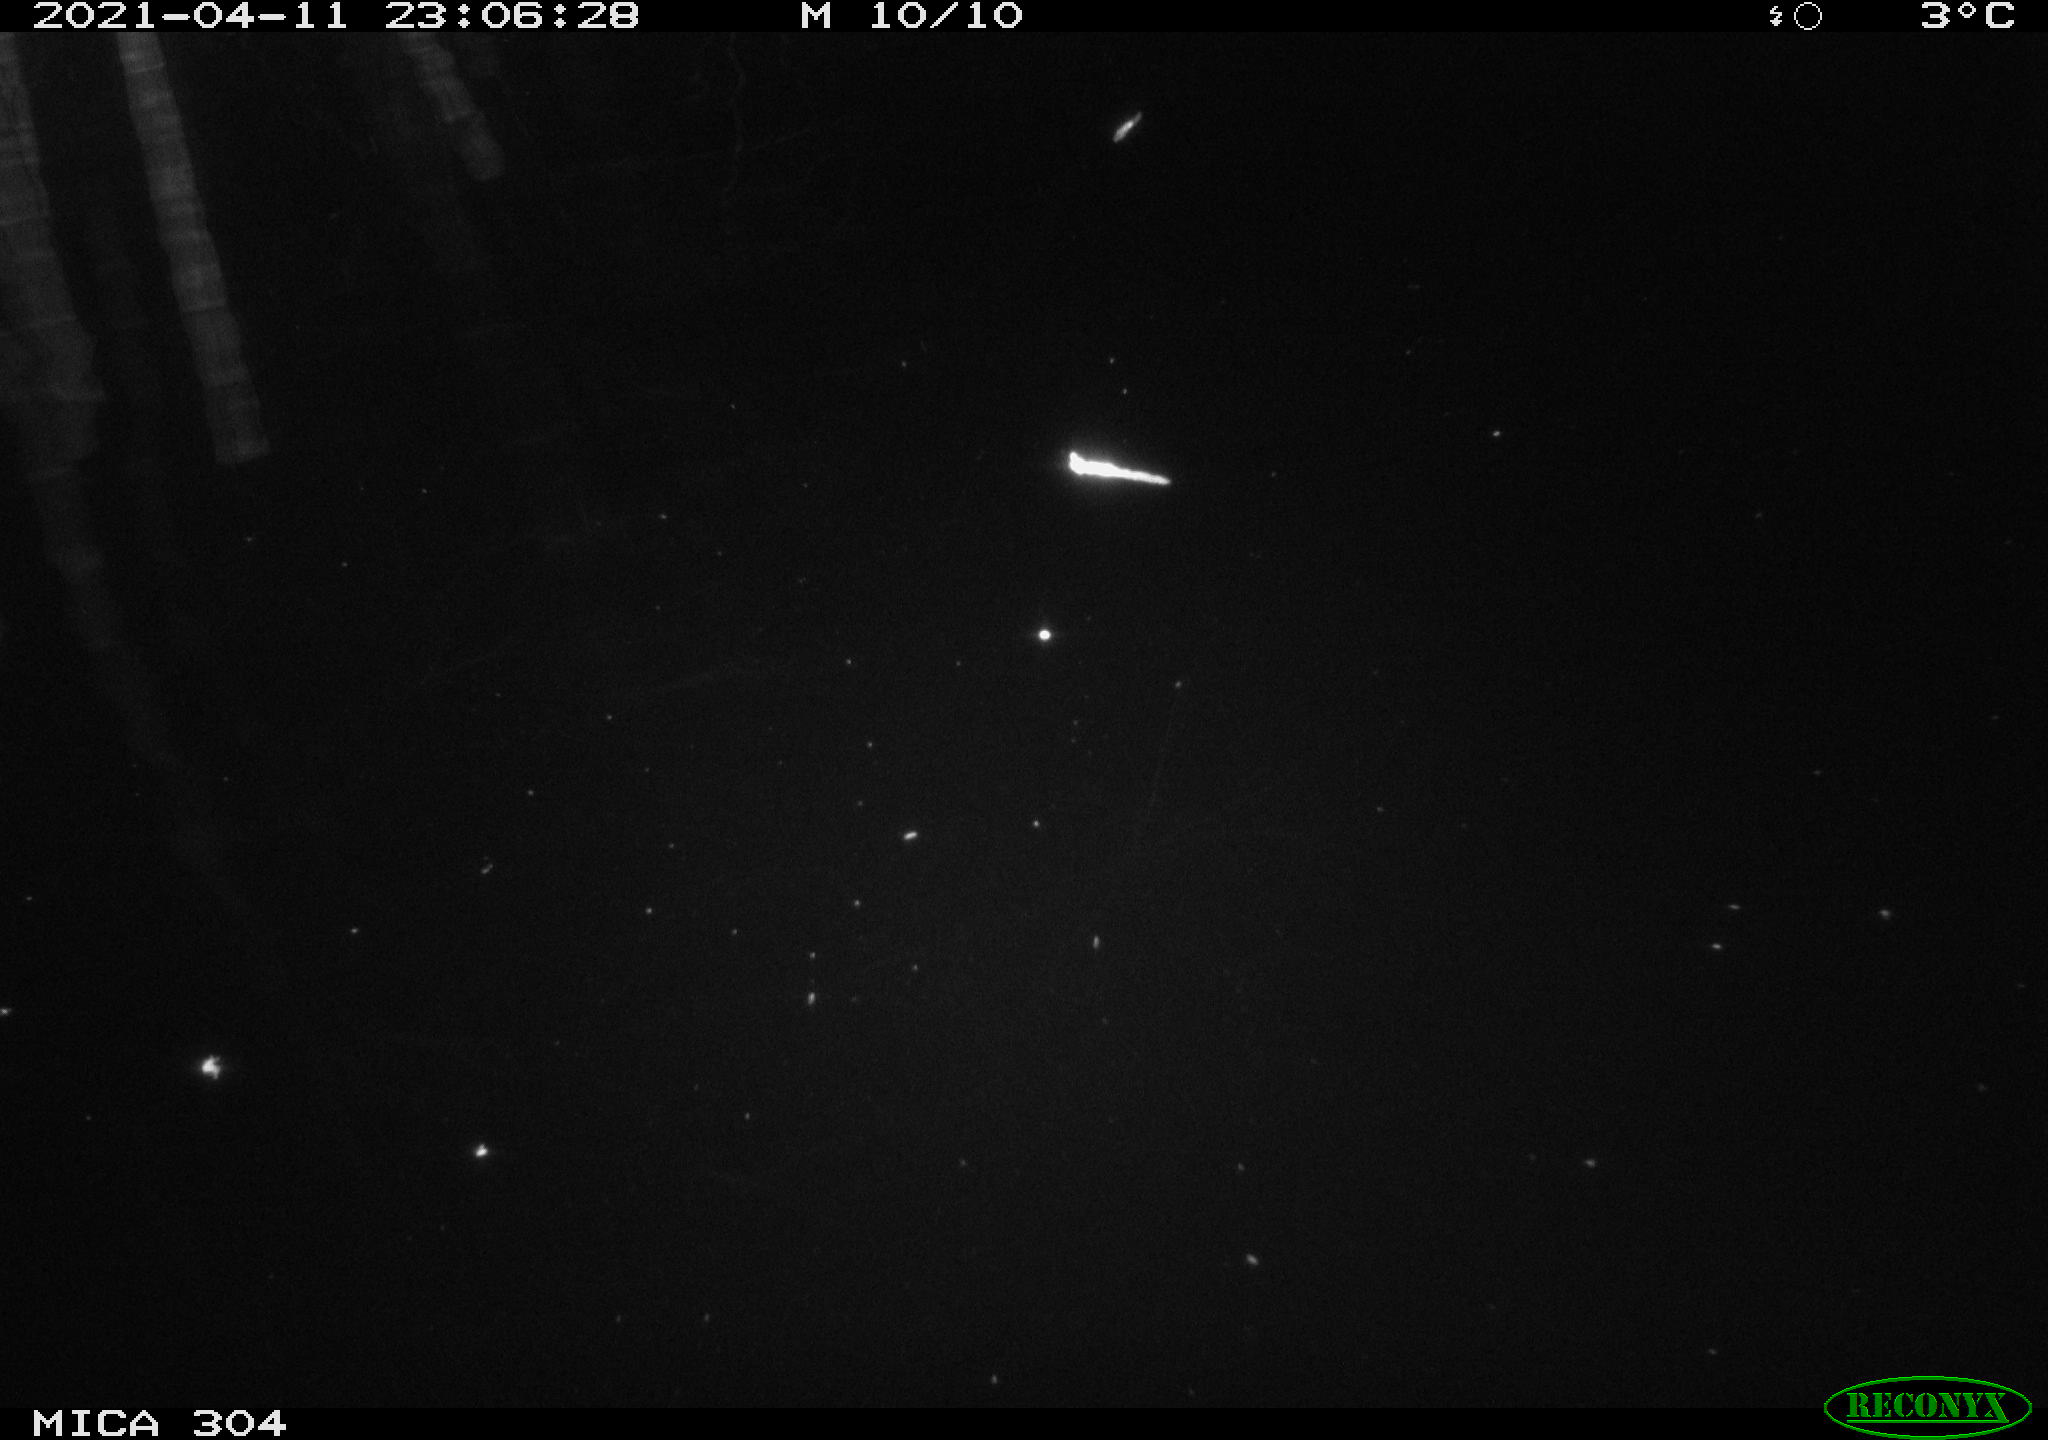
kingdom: Animalia
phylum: Chordata
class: Aves
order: Anseriformes
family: Anatidae
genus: Anas
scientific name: Anas
